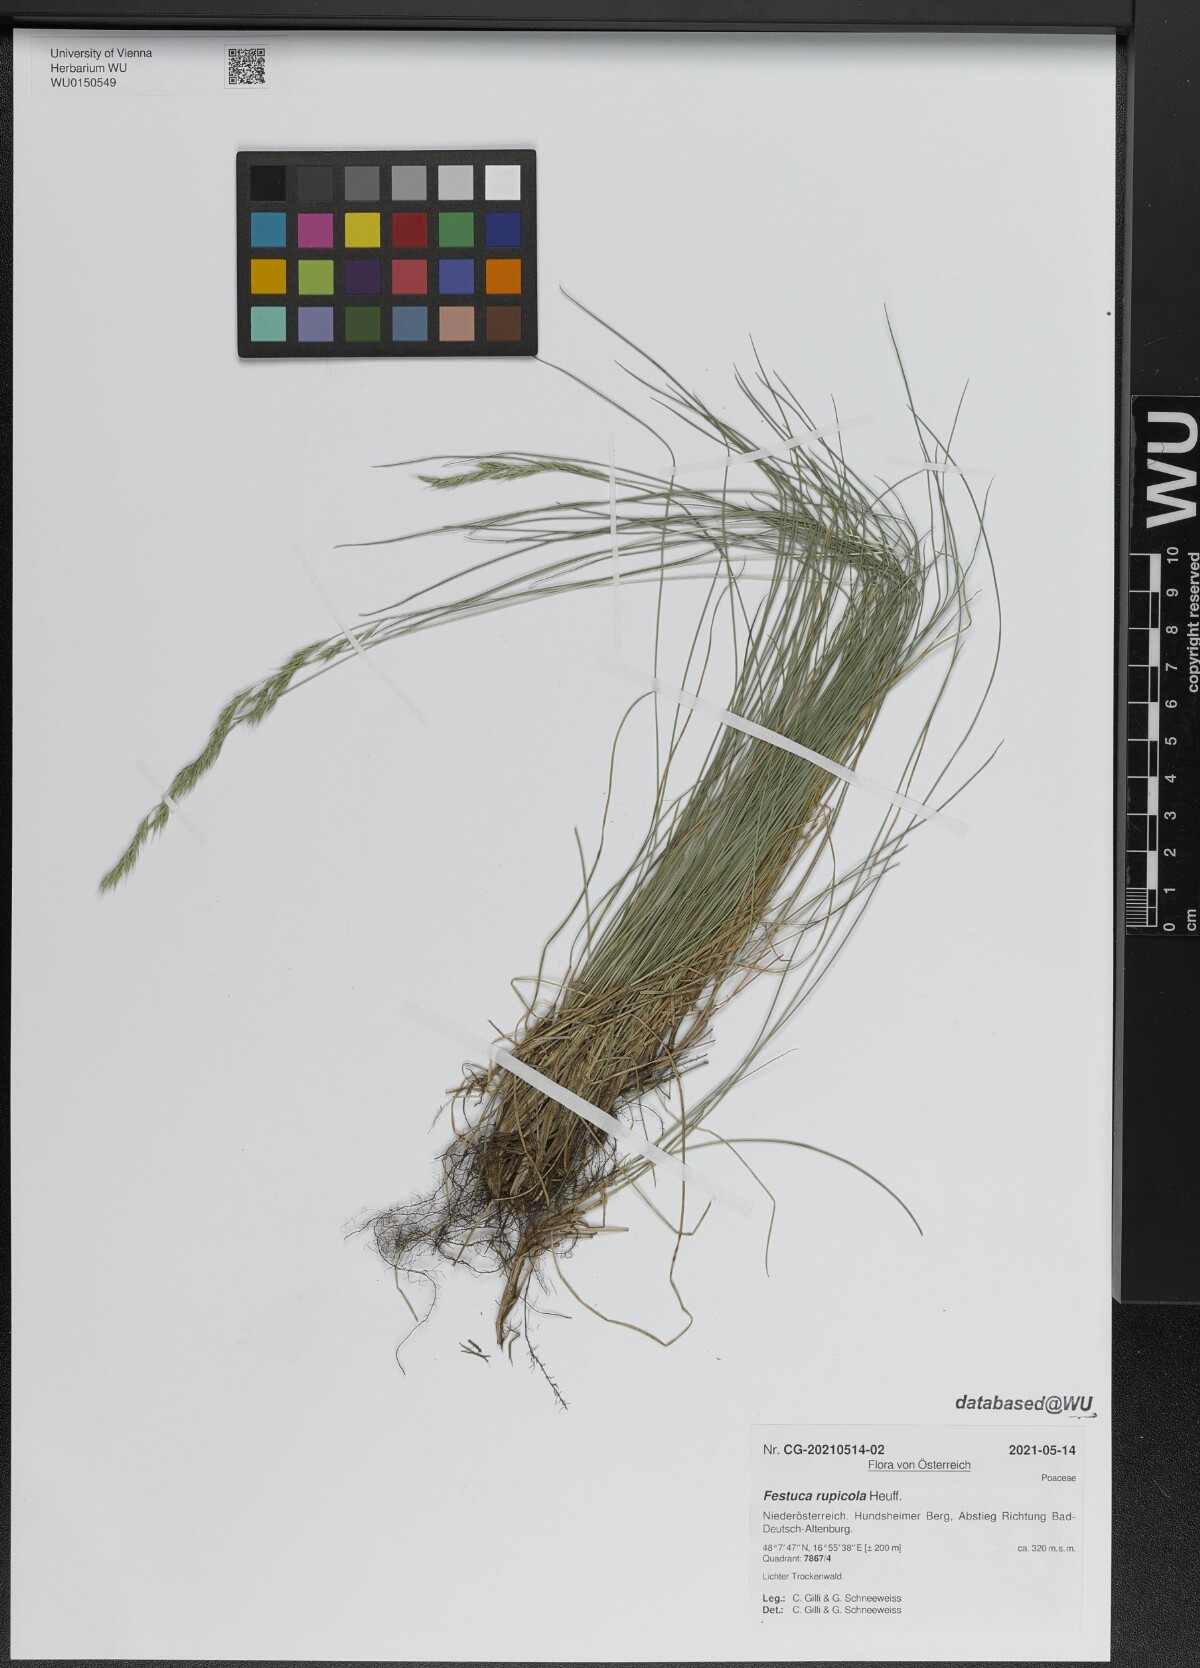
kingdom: Plantae
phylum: Tracheophyta
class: Liliopsida
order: Poales
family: Poaceae
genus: Festuca
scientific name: Festuca rupicola
